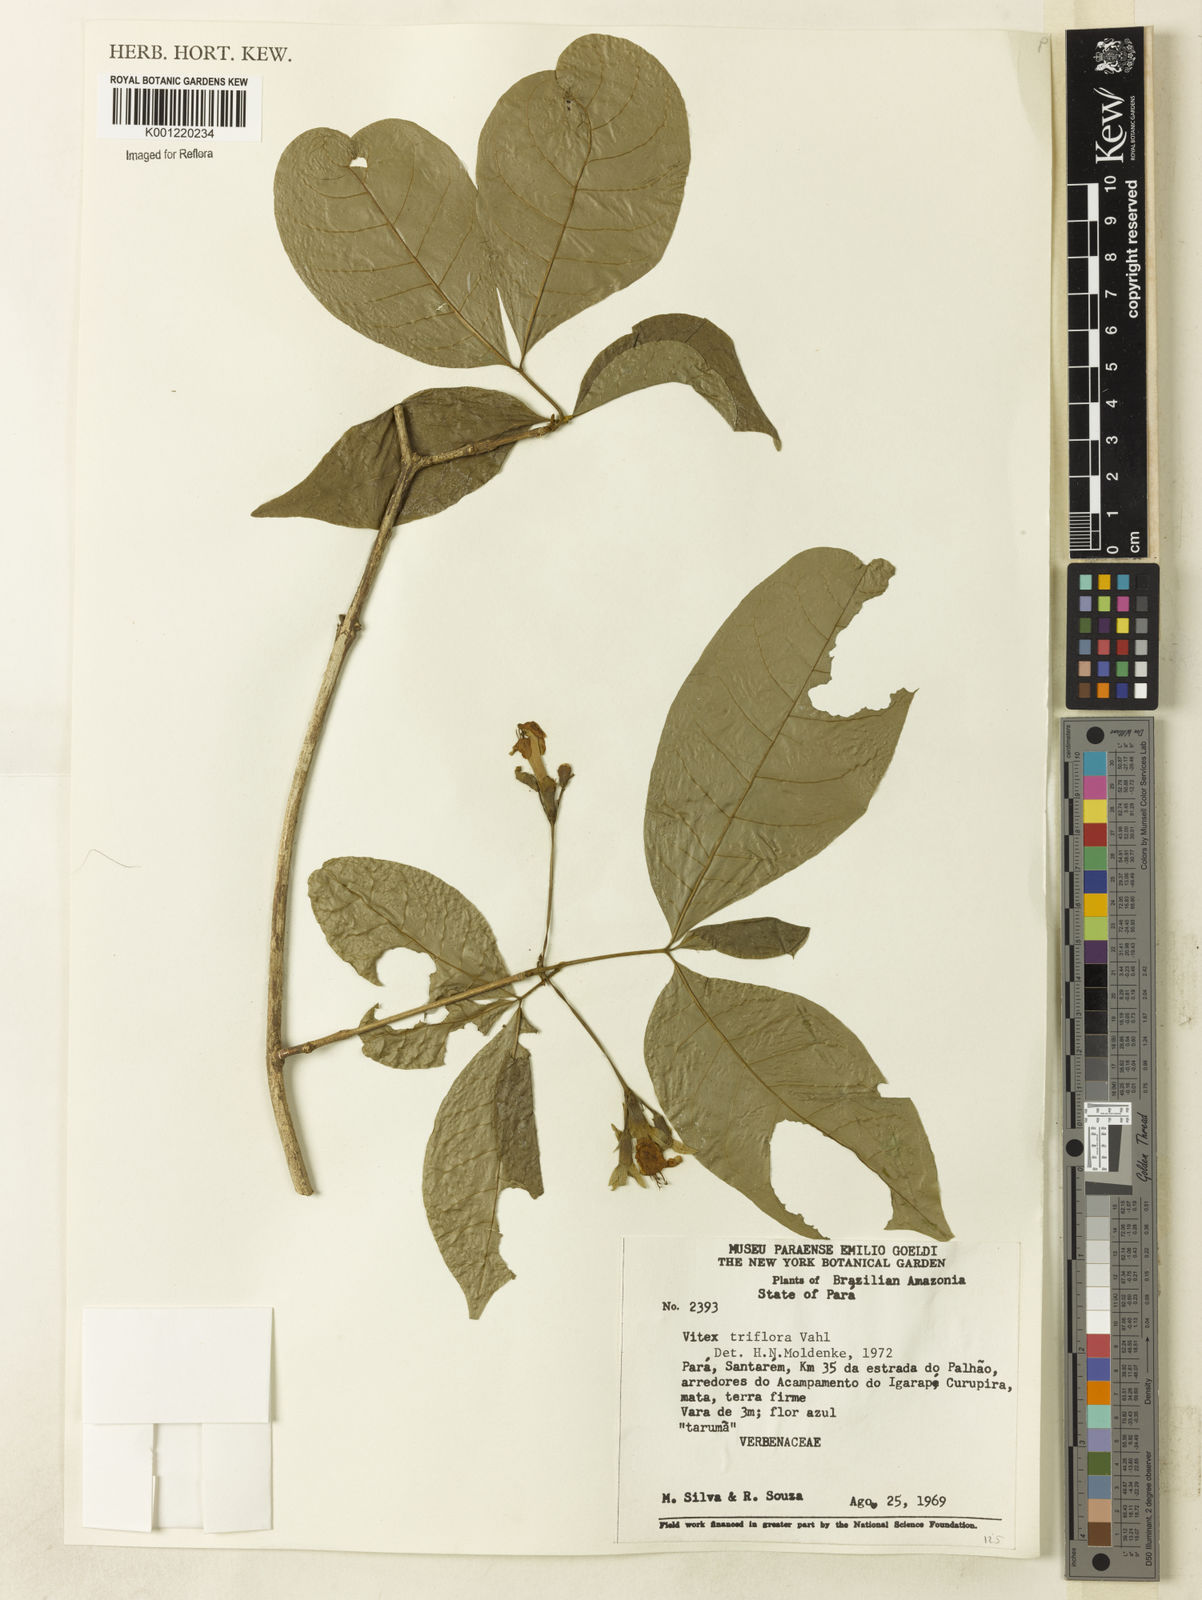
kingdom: Plantae
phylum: Tracheophyta
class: Magnoliopsida
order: Lamiales
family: Lamiaceae
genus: Vitex
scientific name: Vitex triflora
